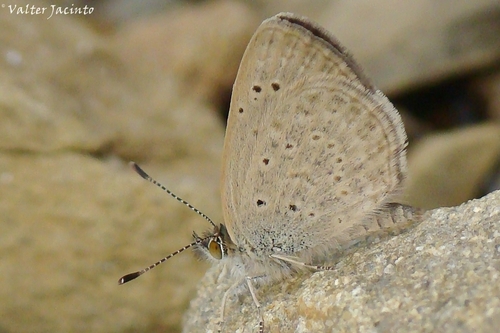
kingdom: Animalia
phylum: Arthropoda
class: Insecta
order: Lepidoptera
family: Lycaenidae
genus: Zizeeria
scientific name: Zizeeria knysna
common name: African grass blue
